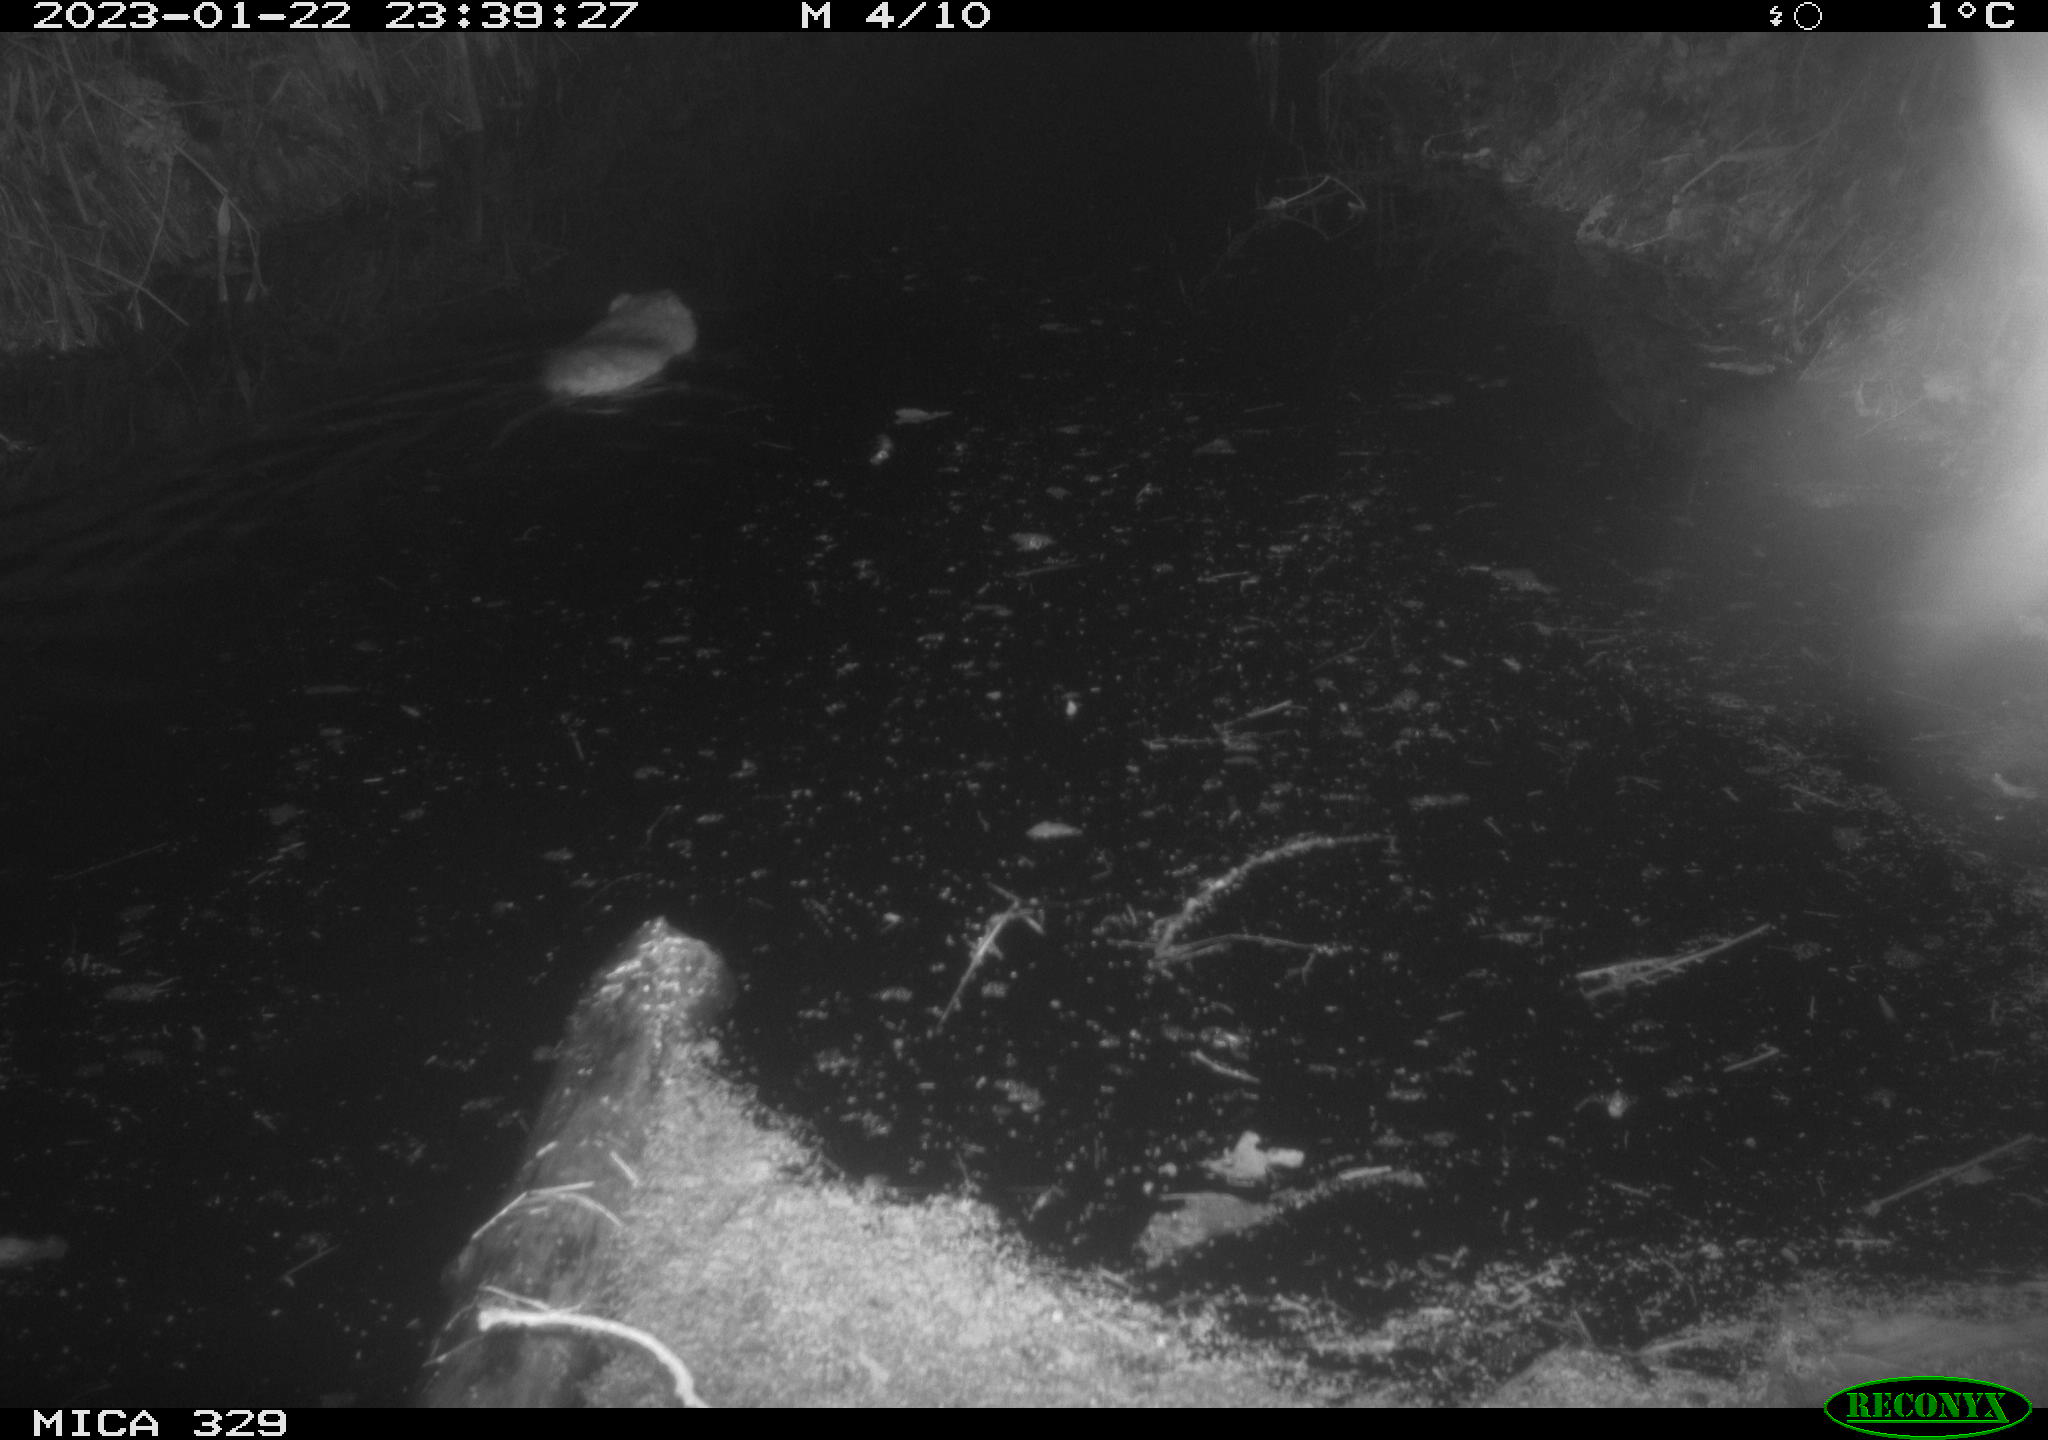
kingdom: Animalia
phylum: Chordata
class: Mammalia
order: Rodentia
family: Cricetidae
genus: Ondatra
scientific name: Ondatra zibethicus
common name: Muskrat
